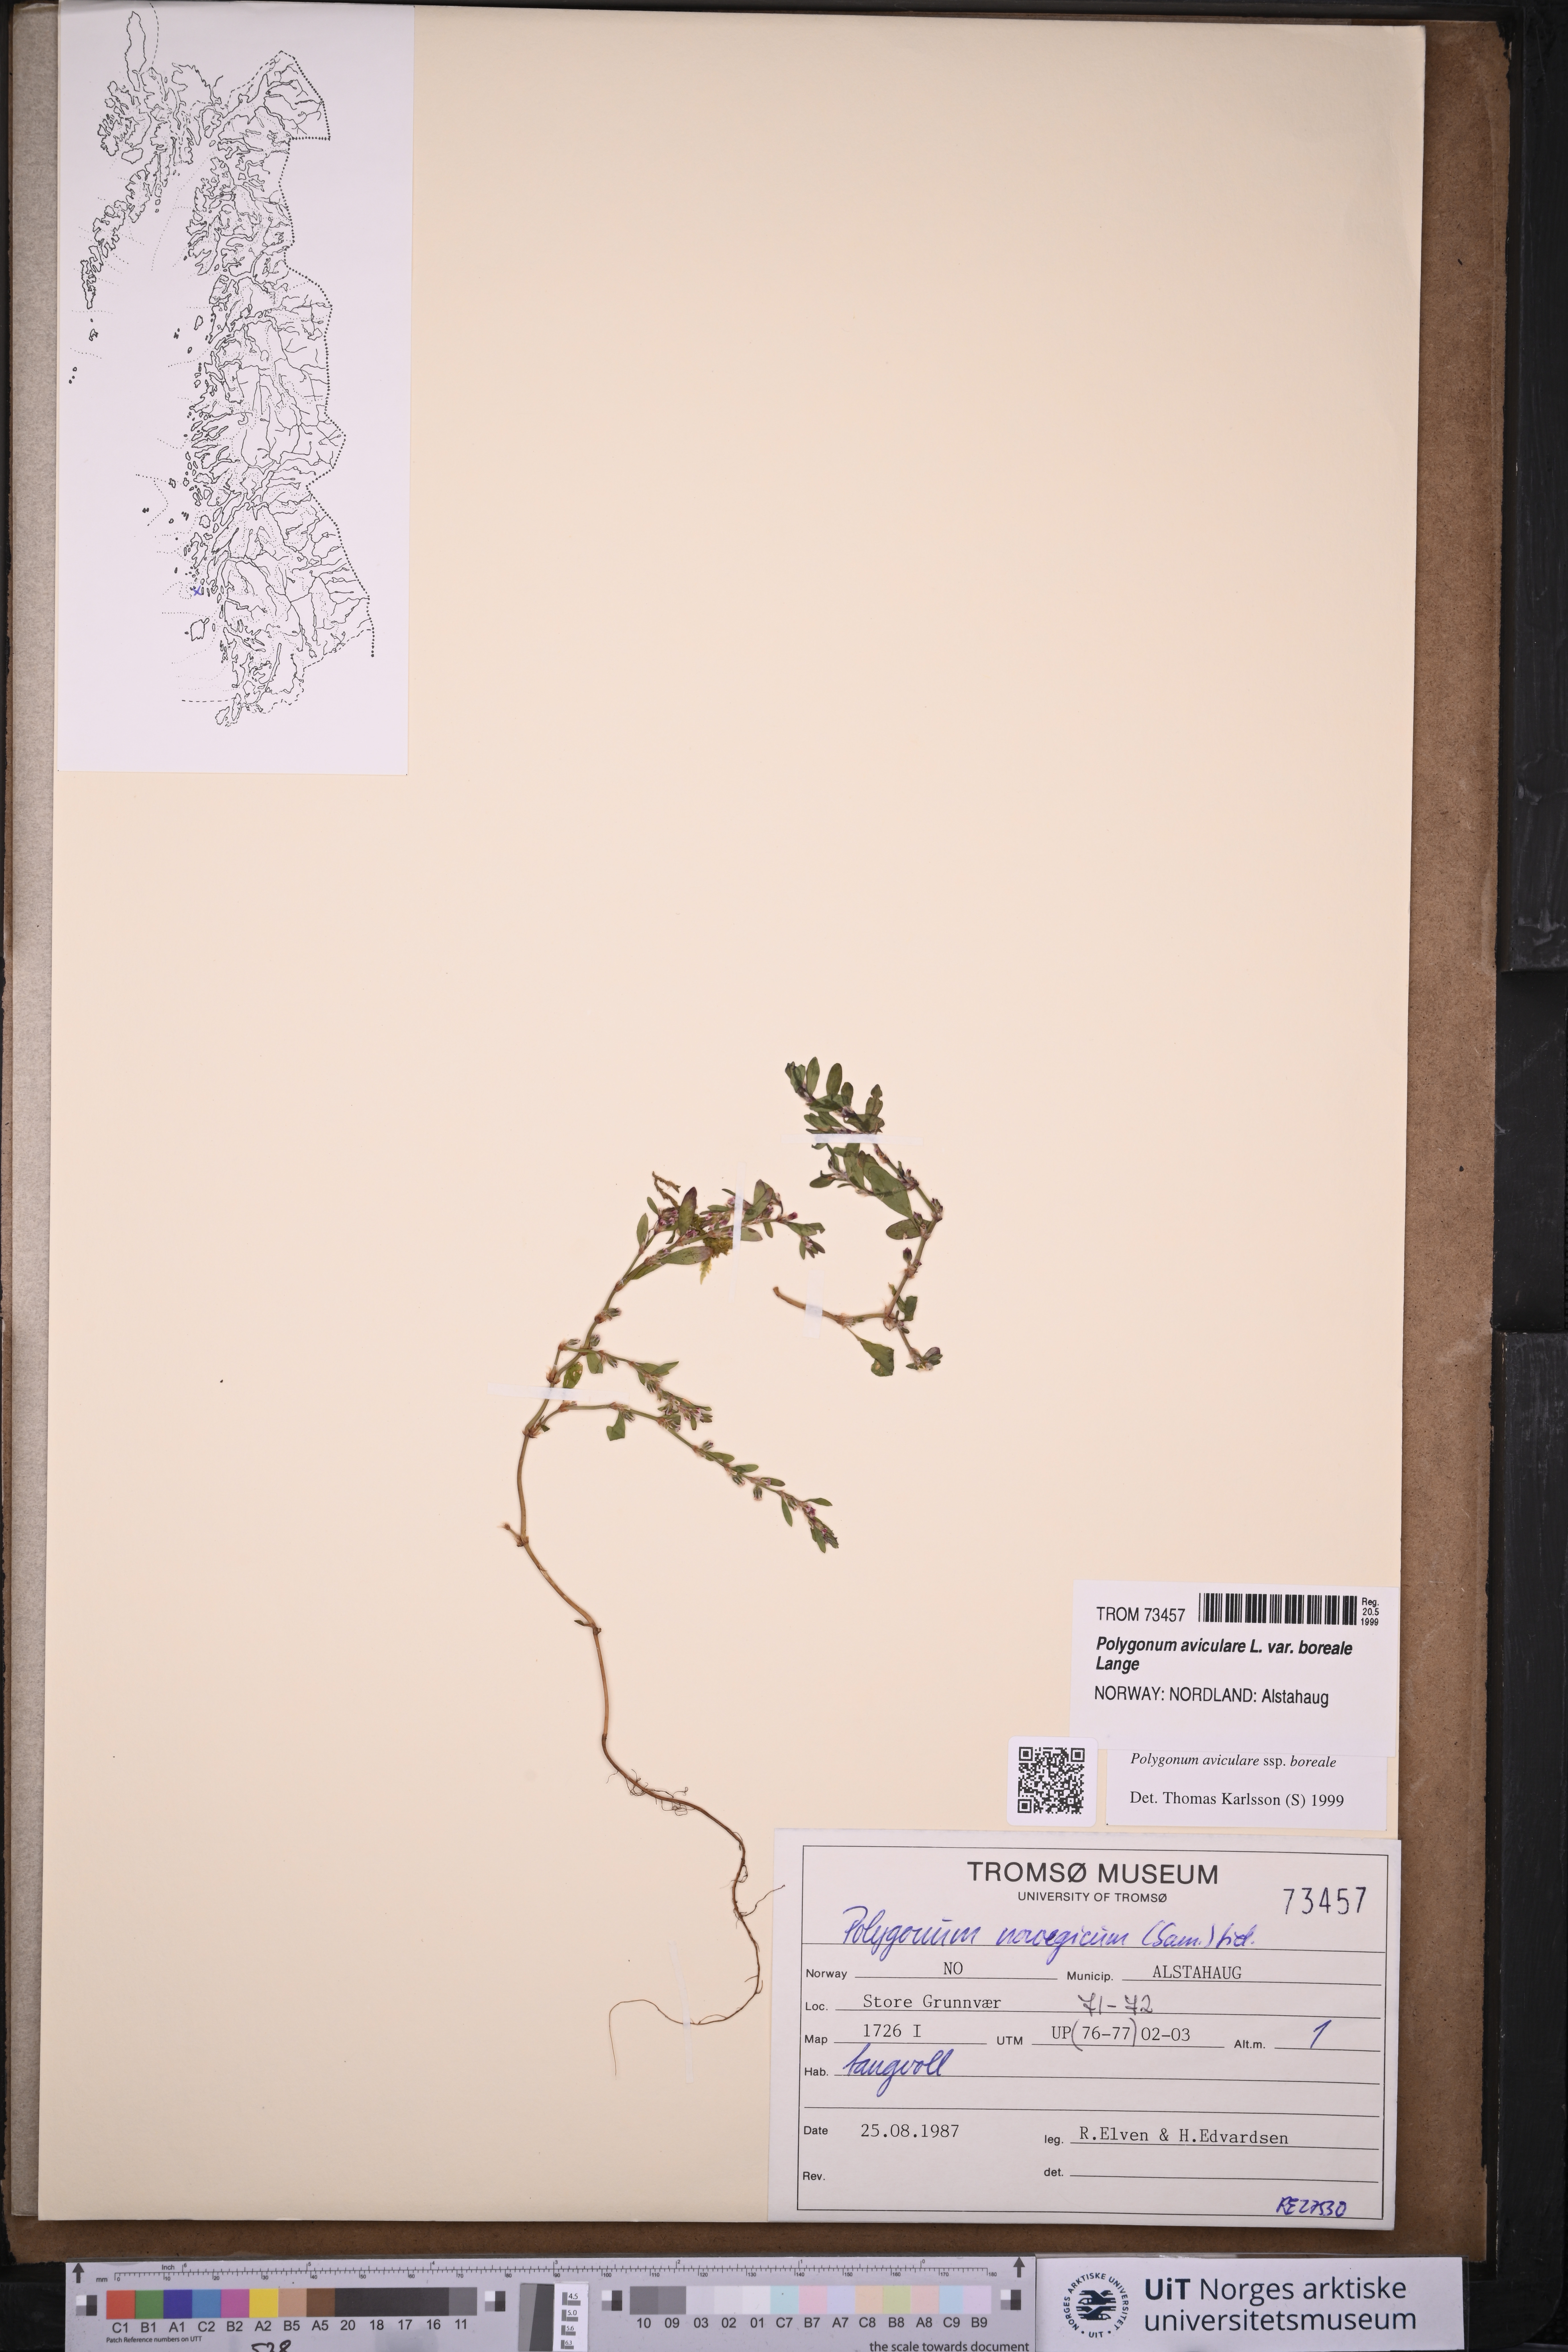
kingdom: Plantae
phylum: Tracheophyta
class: Magnoliopsida
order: Caryophyllales
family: Polygonaceae
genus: Polygonum
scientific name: Polygonum boreale
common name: Northern knotgrass
